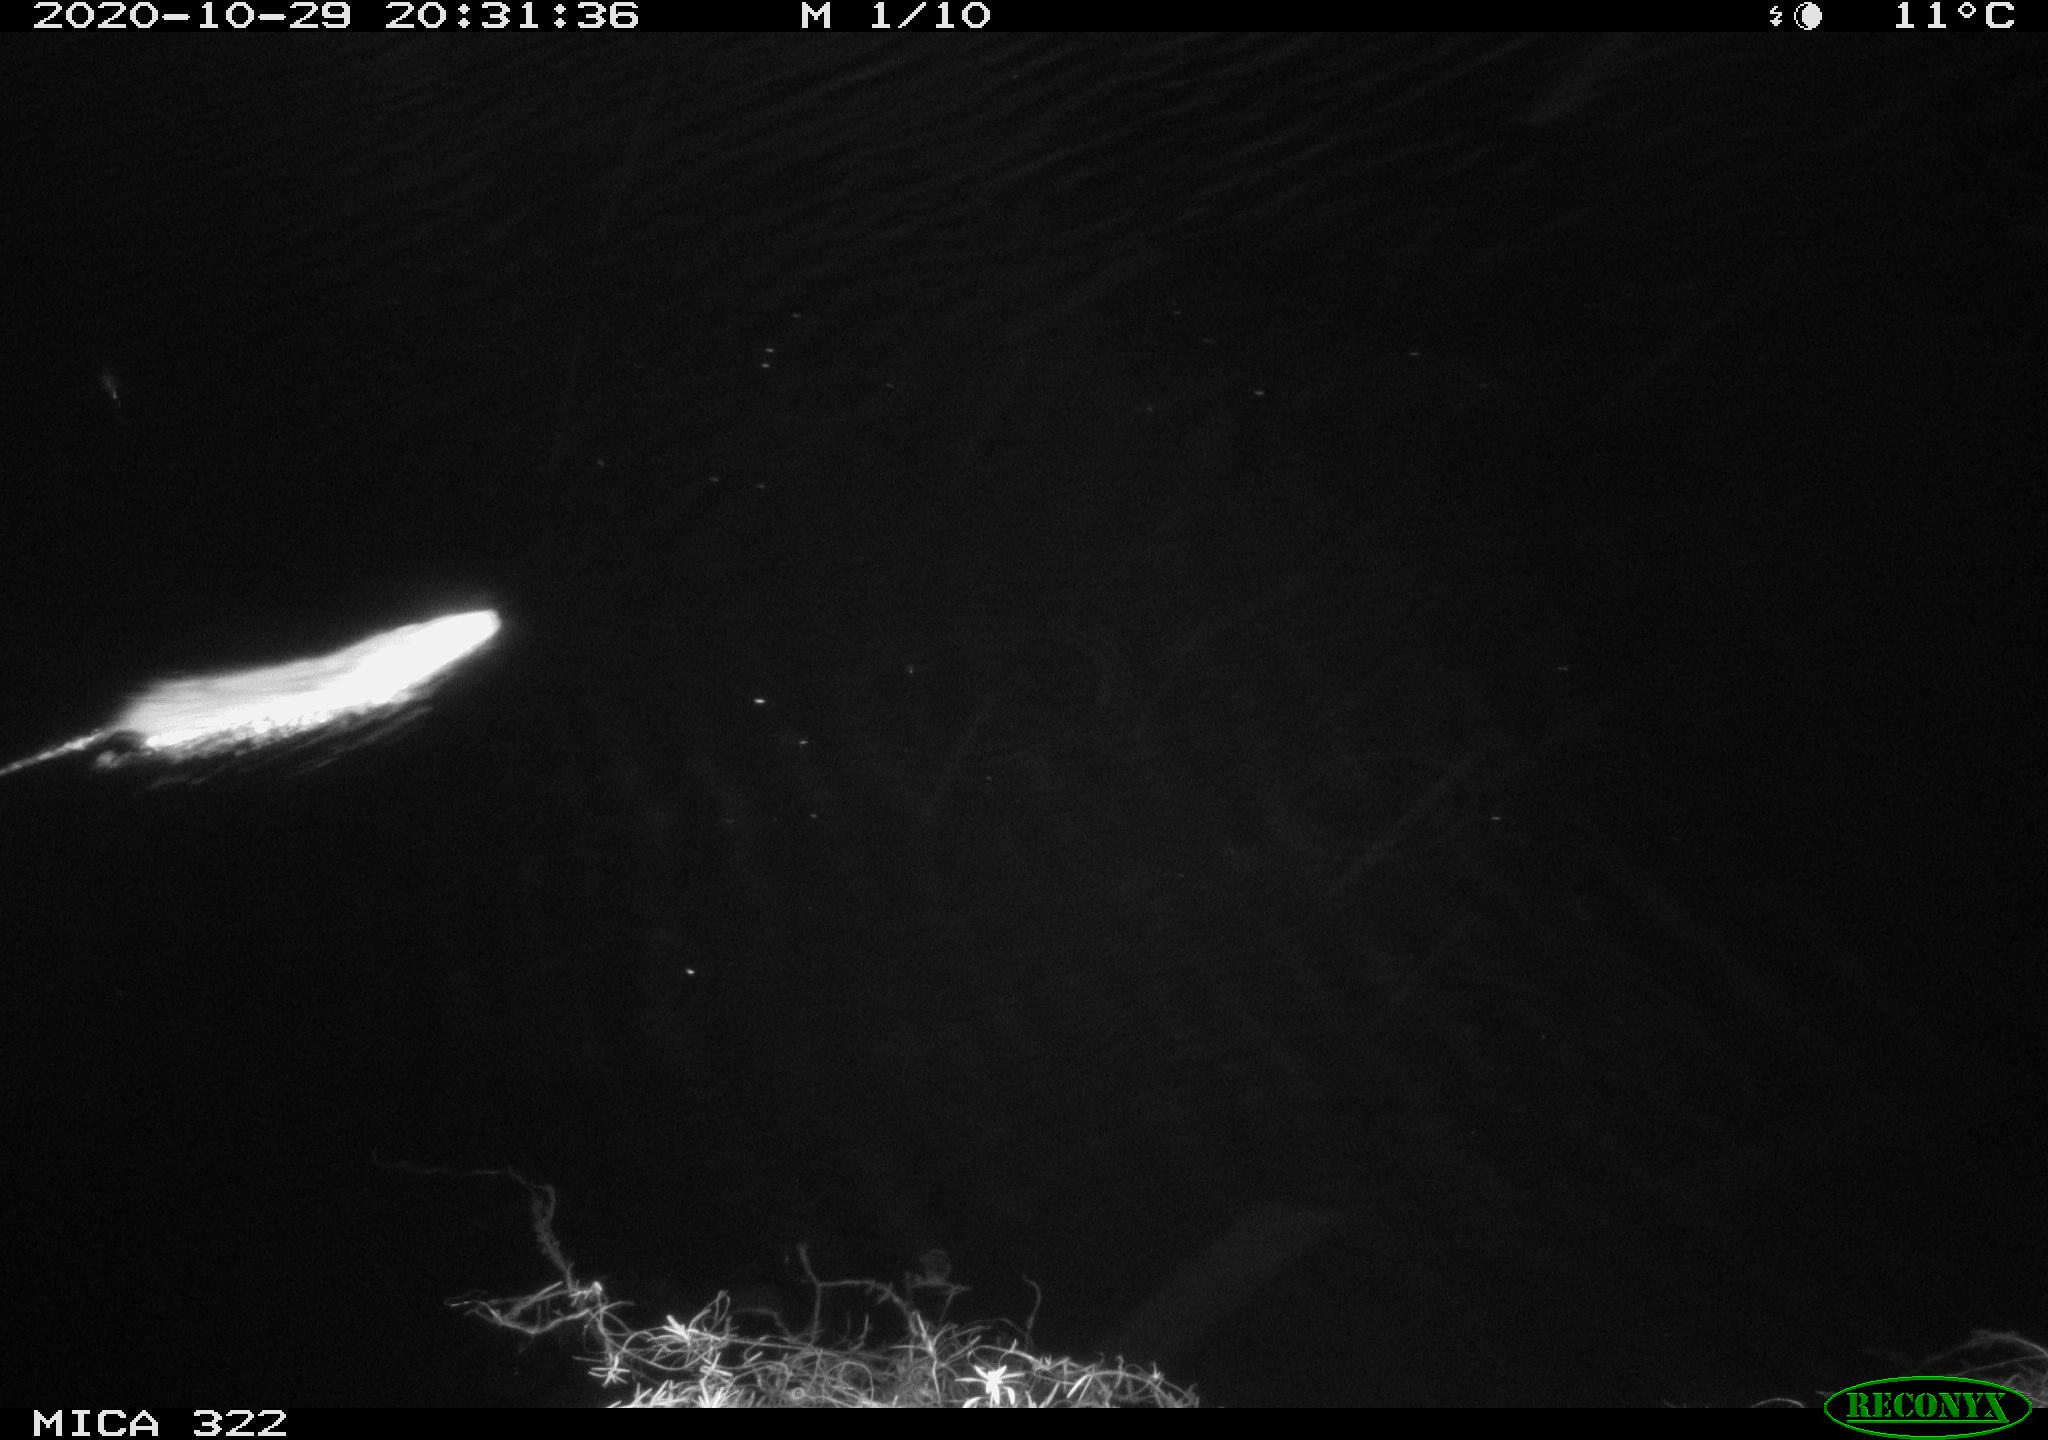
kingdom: Animalia
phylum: Chordata
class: Mammalia
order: Rodentia
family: Muridae
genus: Rattus
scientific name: Rattus norvegicus
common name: Brown rat
